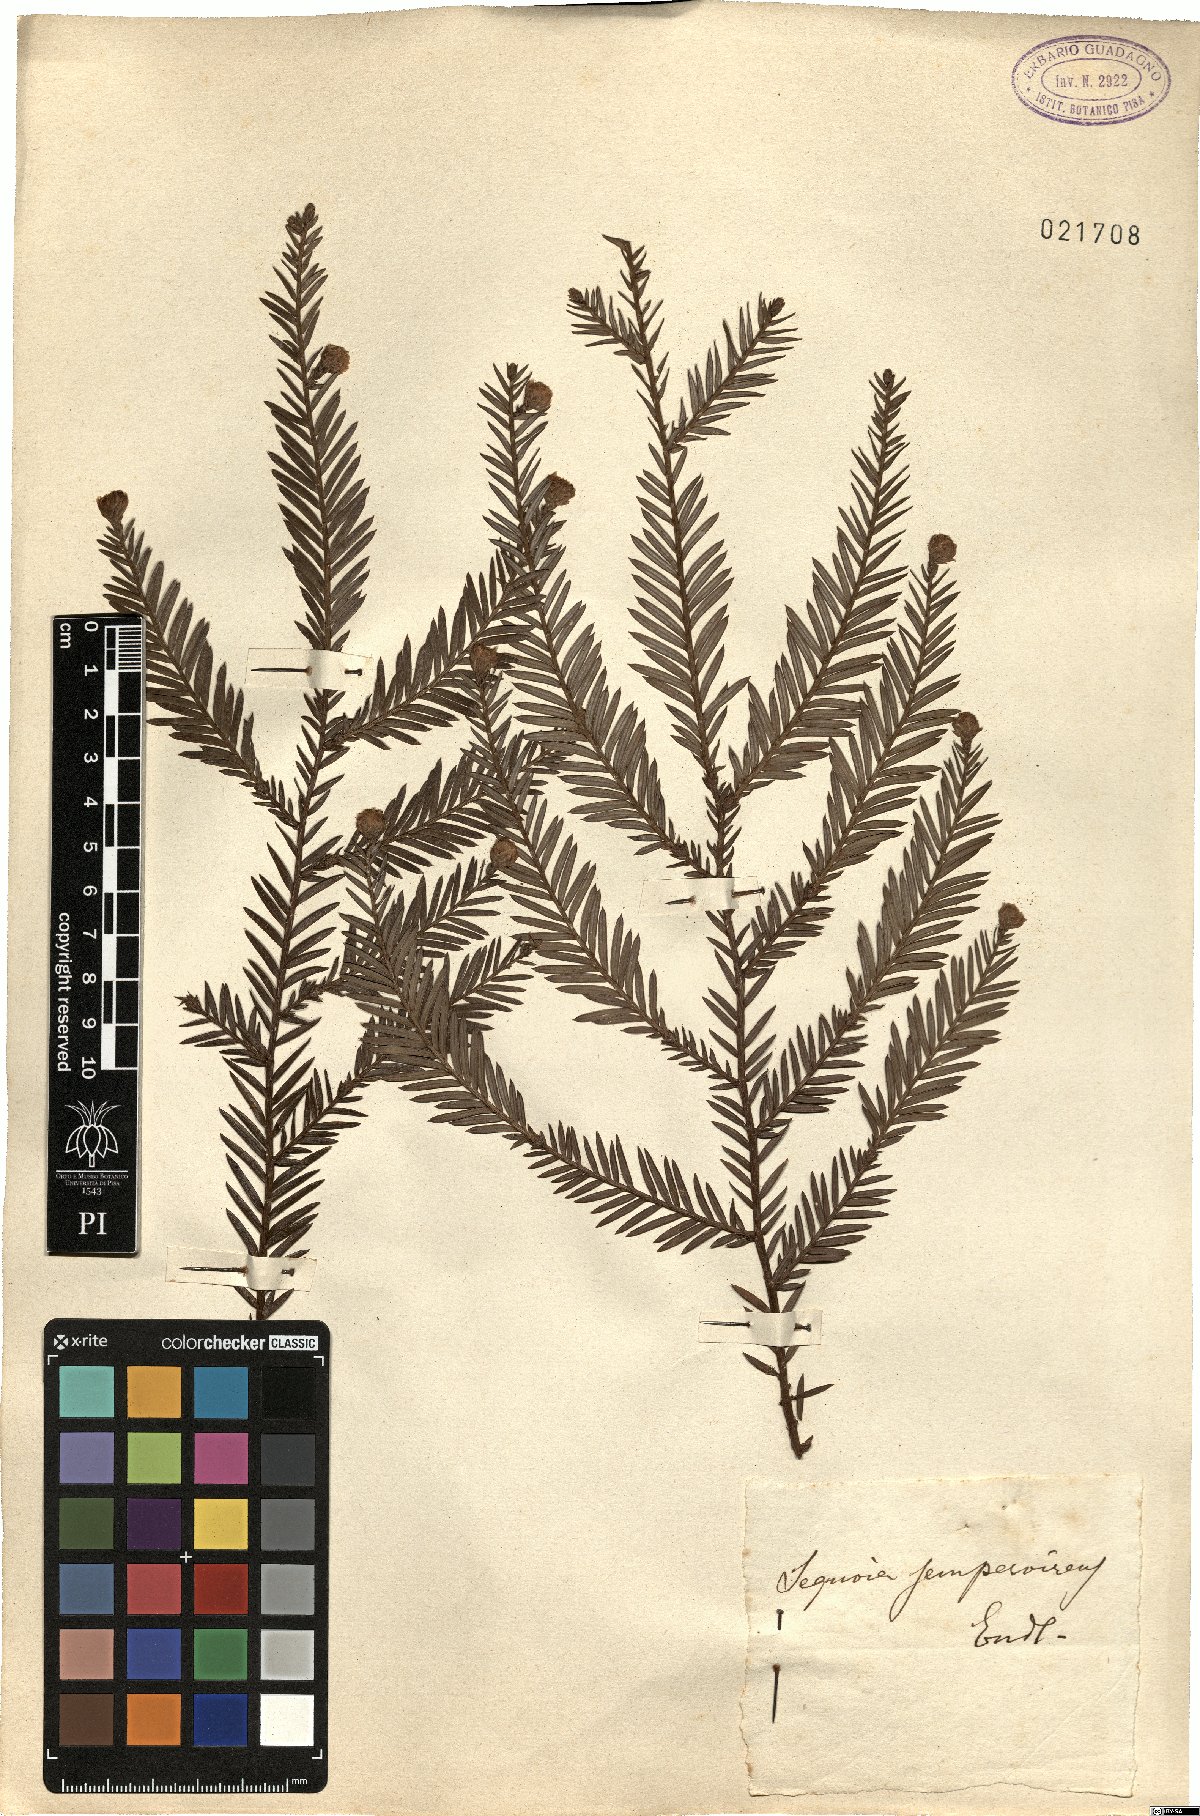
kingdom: Plantae
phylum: Tracheophyta
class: Pinopsida
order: Pinales
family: Cupressaceae
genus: Sequoia
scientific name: Sequoia sempervirens
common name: Coast redwood
